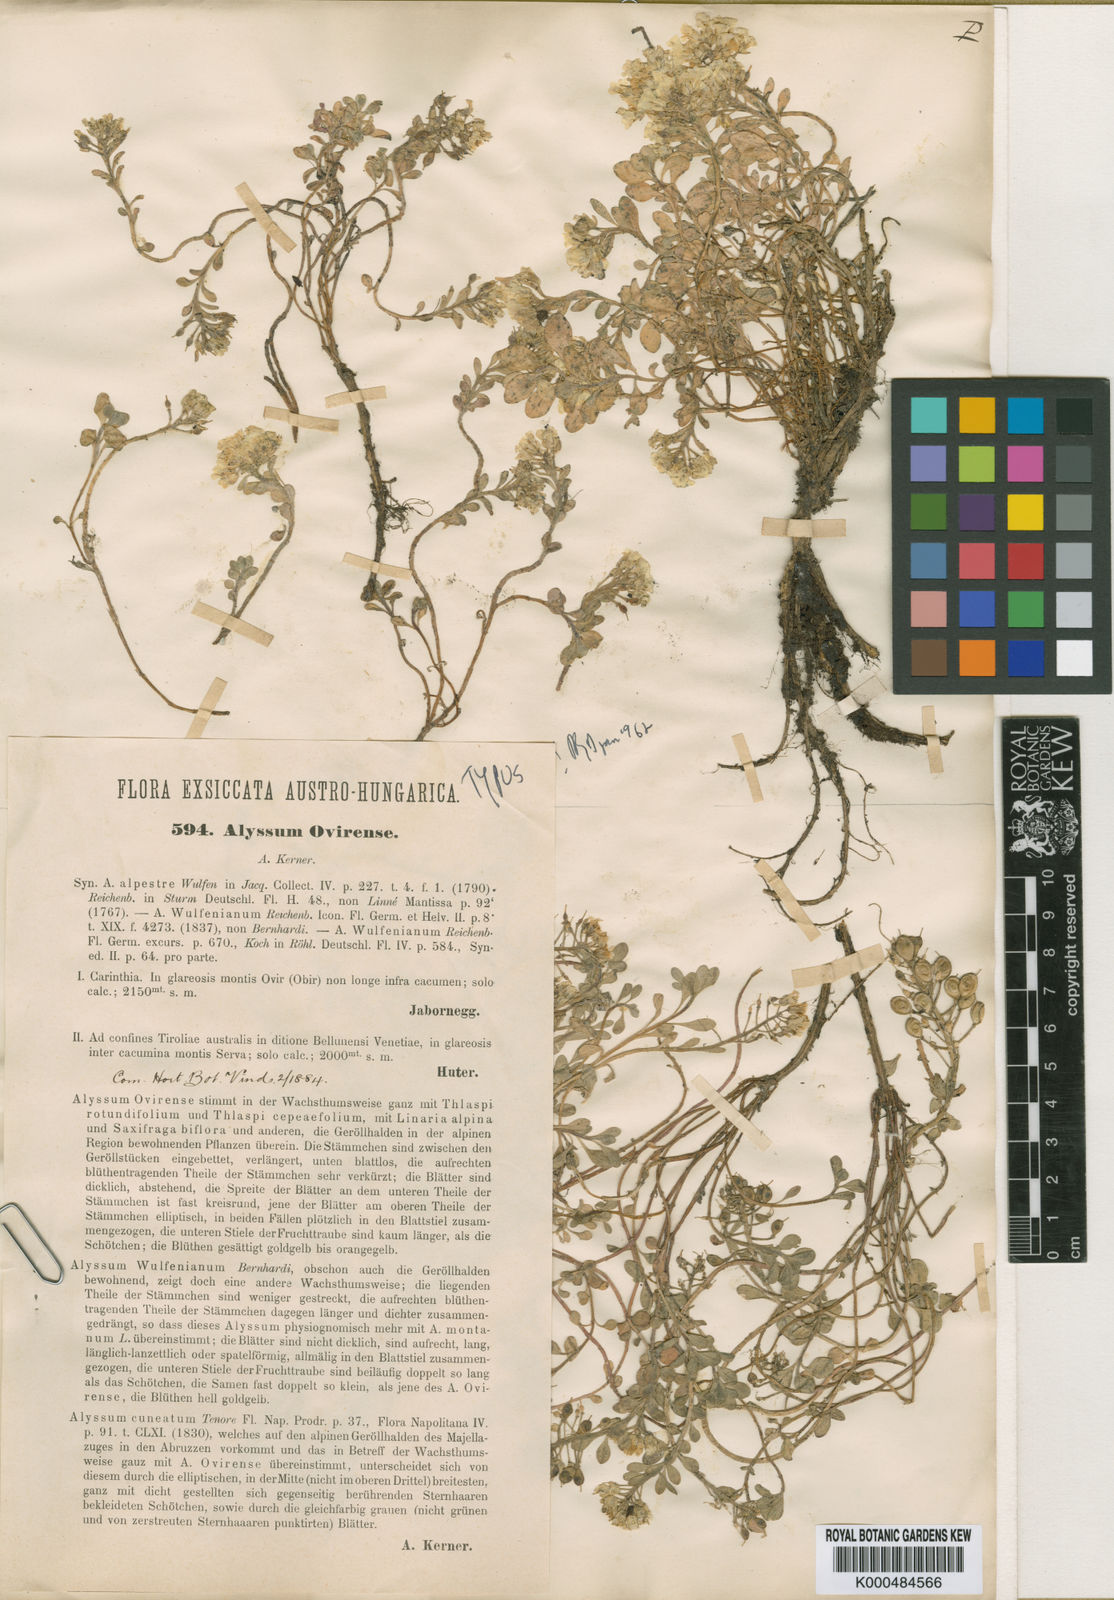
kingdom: Plantae
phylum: Tracheophyta
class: Magnoliopsida
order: Brassicales
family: Brassicaceae
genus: Alyssum
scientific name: Alyssum wulfenianum
